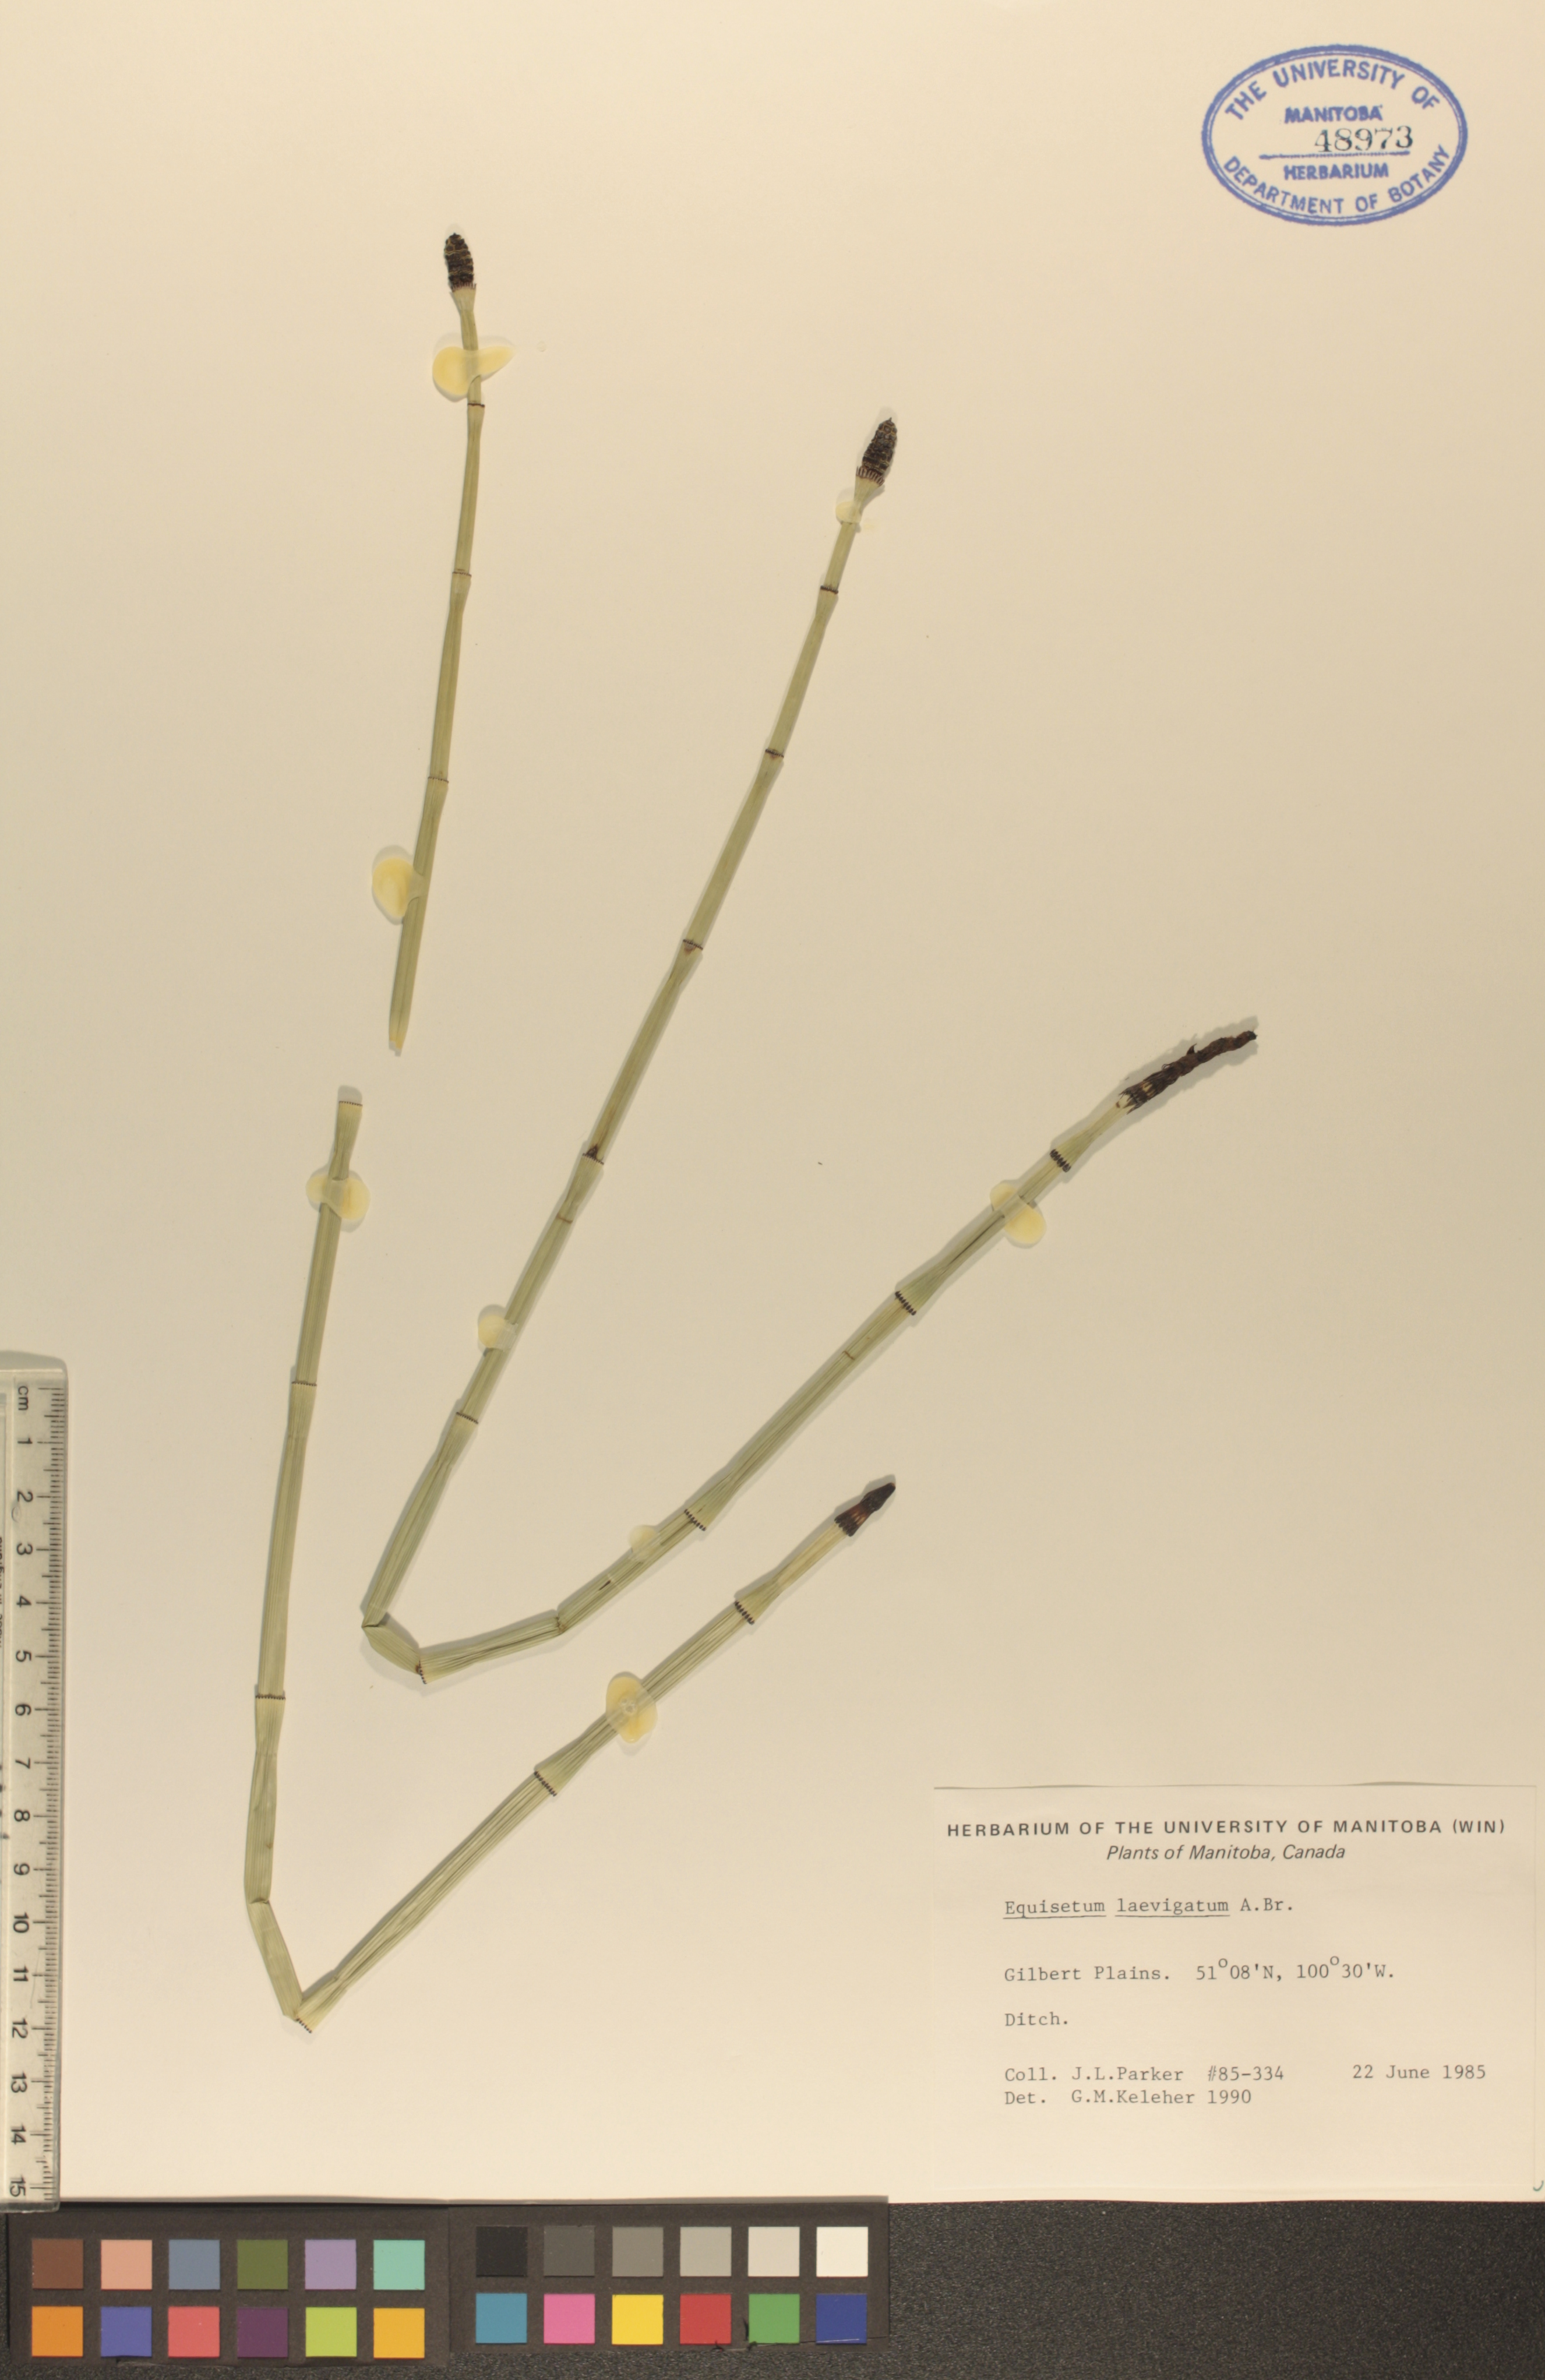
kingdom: Plantae
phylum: Tracheophyta
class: Polypodiopsida
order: Equisetales
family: Equisetaceae
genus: Equisetum
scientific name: Equisetum laevigatum
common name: Smooth scouring-rush
